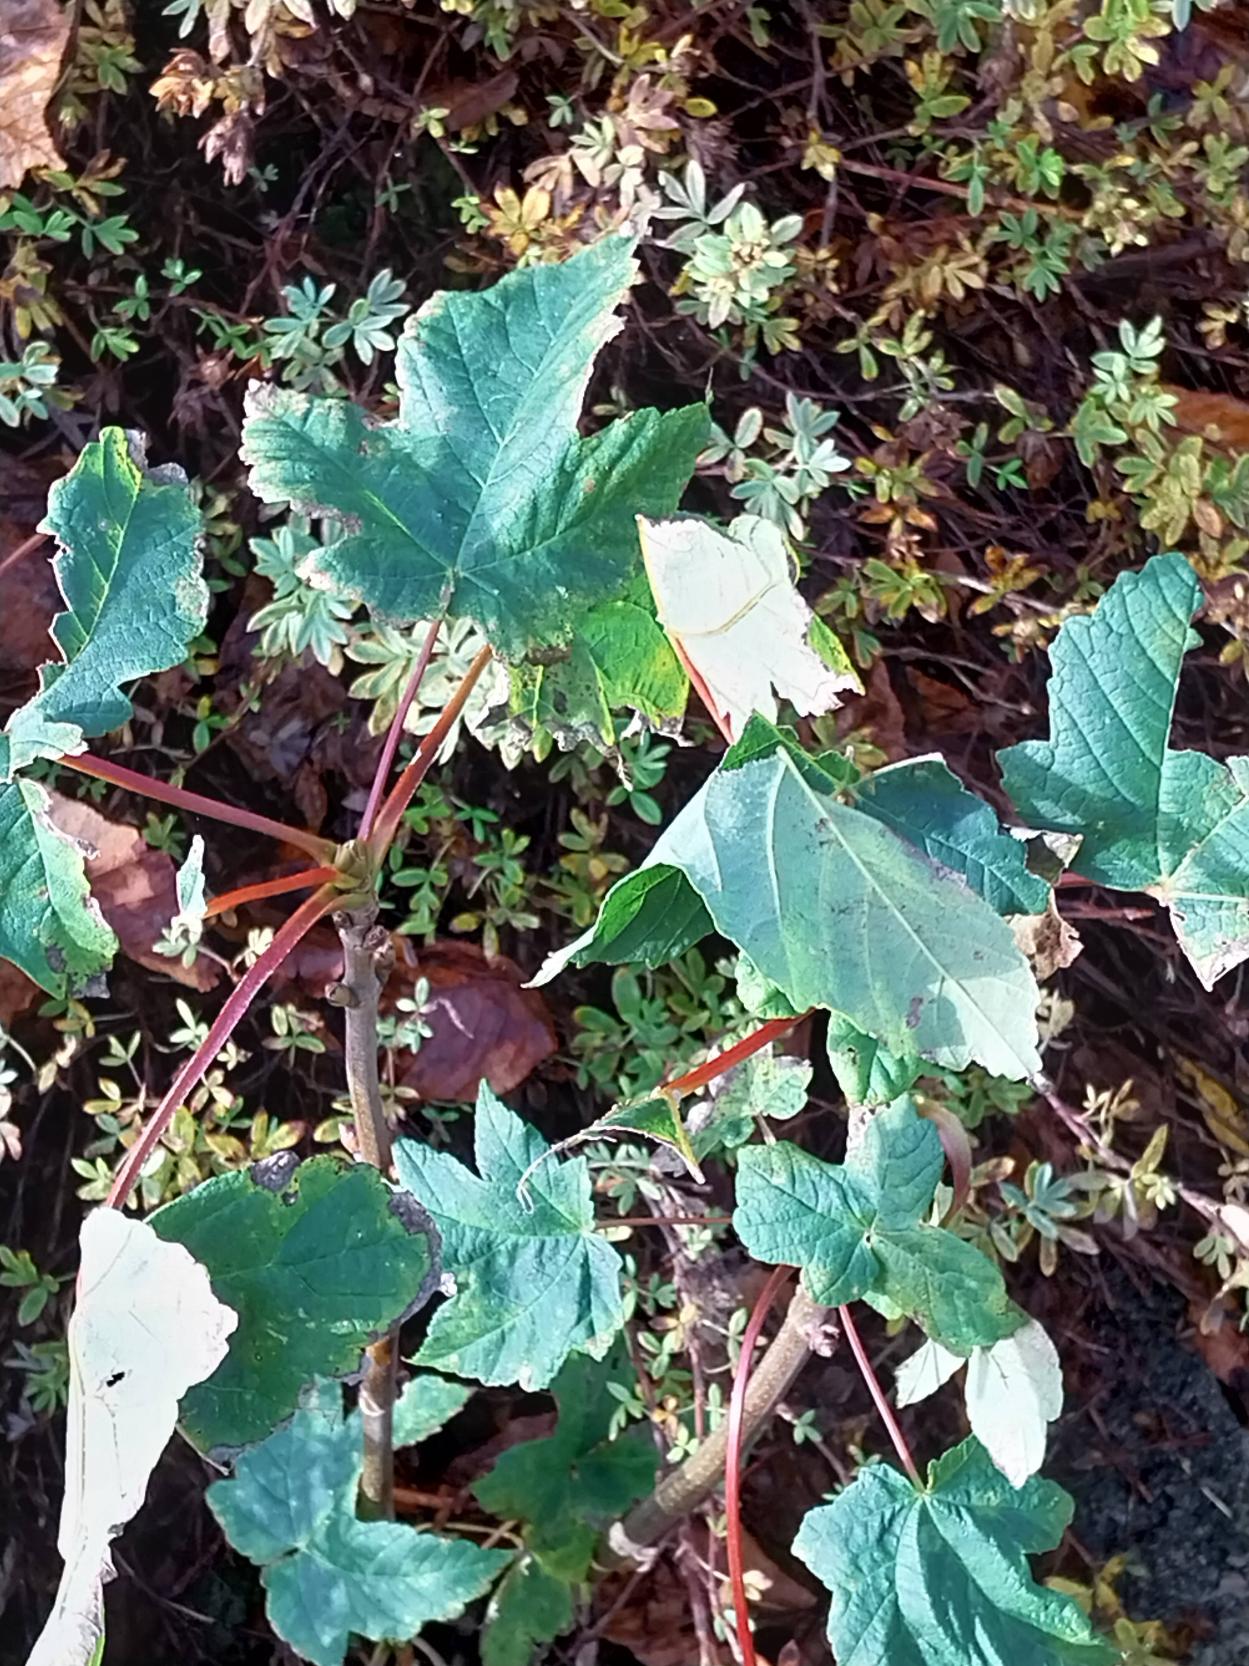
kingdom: Plantae
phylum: Tracheophyta
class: Magnoliopsida
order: Sapindales
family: Sapindaceae
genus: Acer
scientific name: Acer pseudoplatanus
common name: Ahorn
